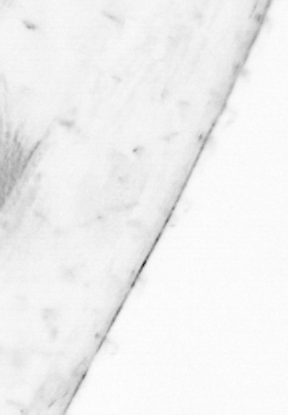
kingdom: Animalia
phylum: Chaetognatha
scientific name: Chaetognatha
